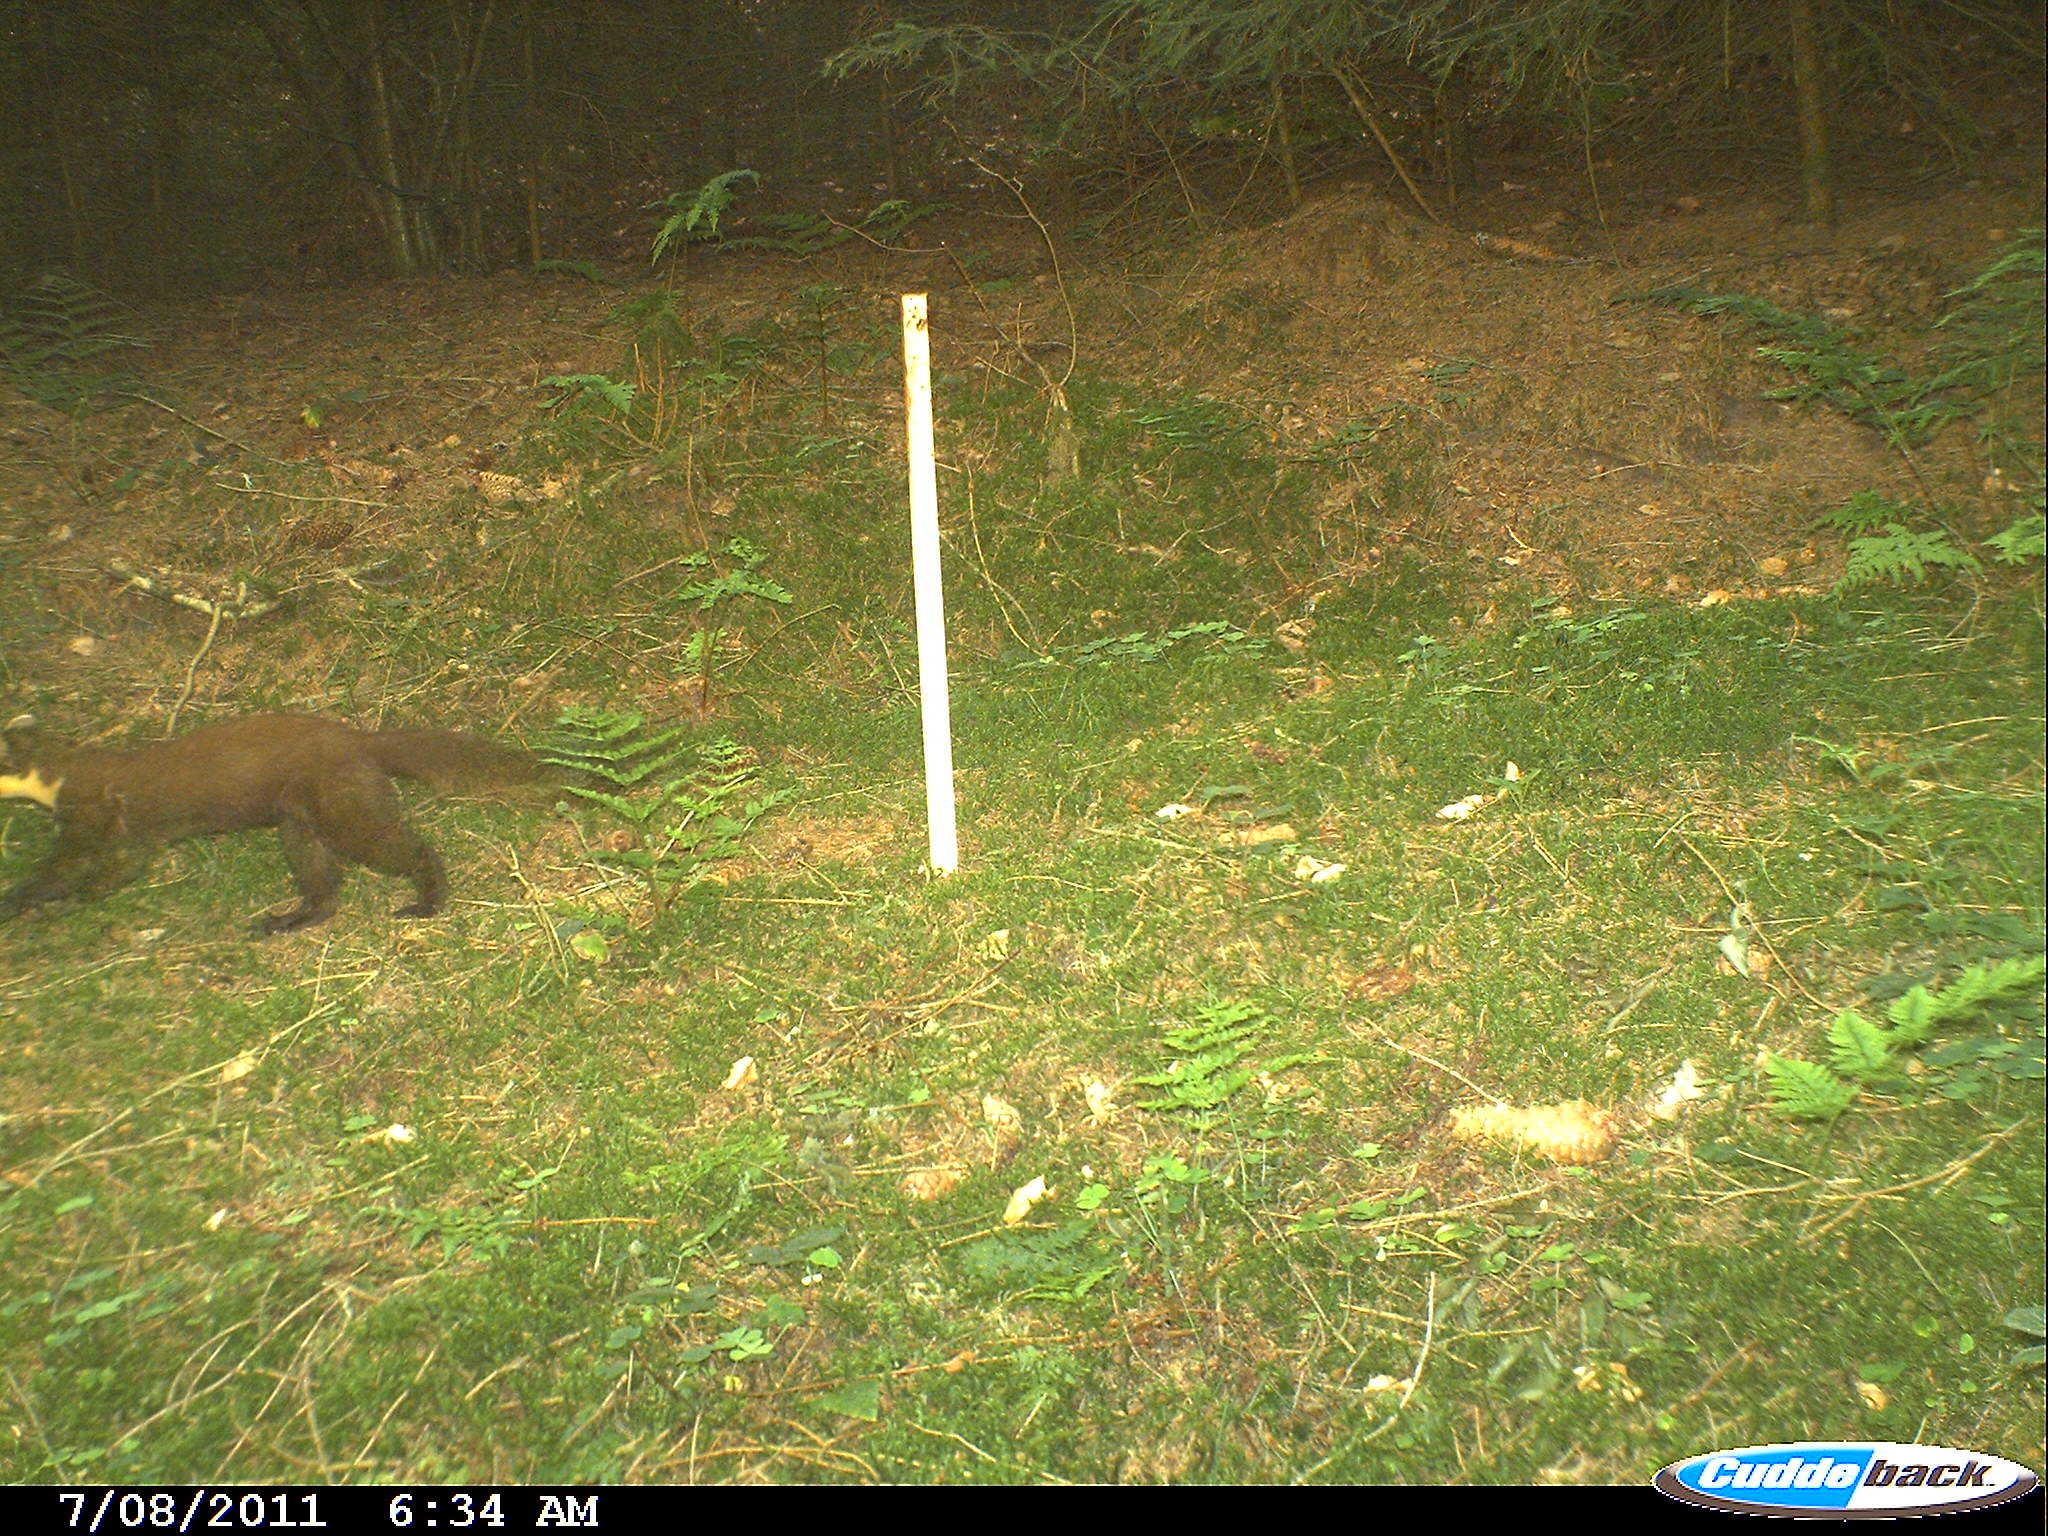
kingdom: Animalia
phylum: Chordata
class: Mammalia
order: Carnivora
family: Mustelidae
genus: Martes
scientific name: Martes martes
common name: European pine marten
